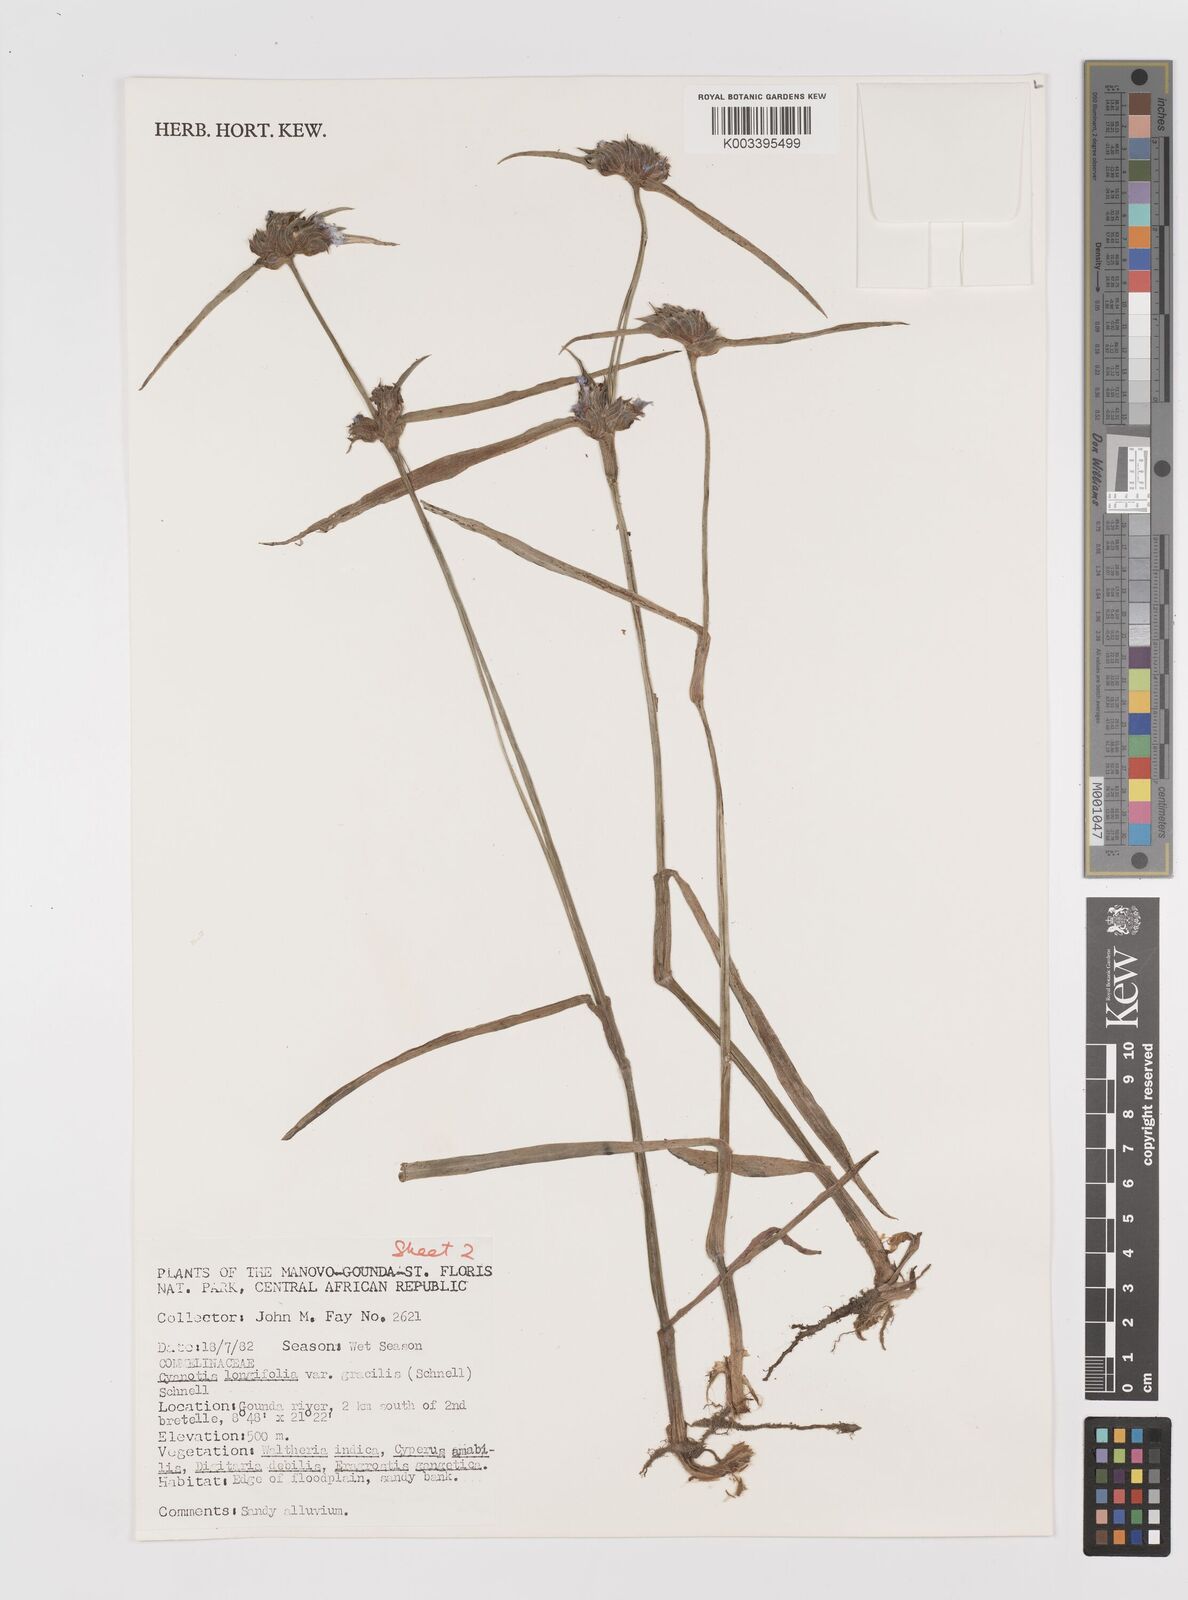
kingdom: Plantae
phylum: Tracheophyta
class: Liliopsida
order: Commelinales
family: Commelinaceae
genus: Cyanotis
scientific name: Cyanotis longifolia
